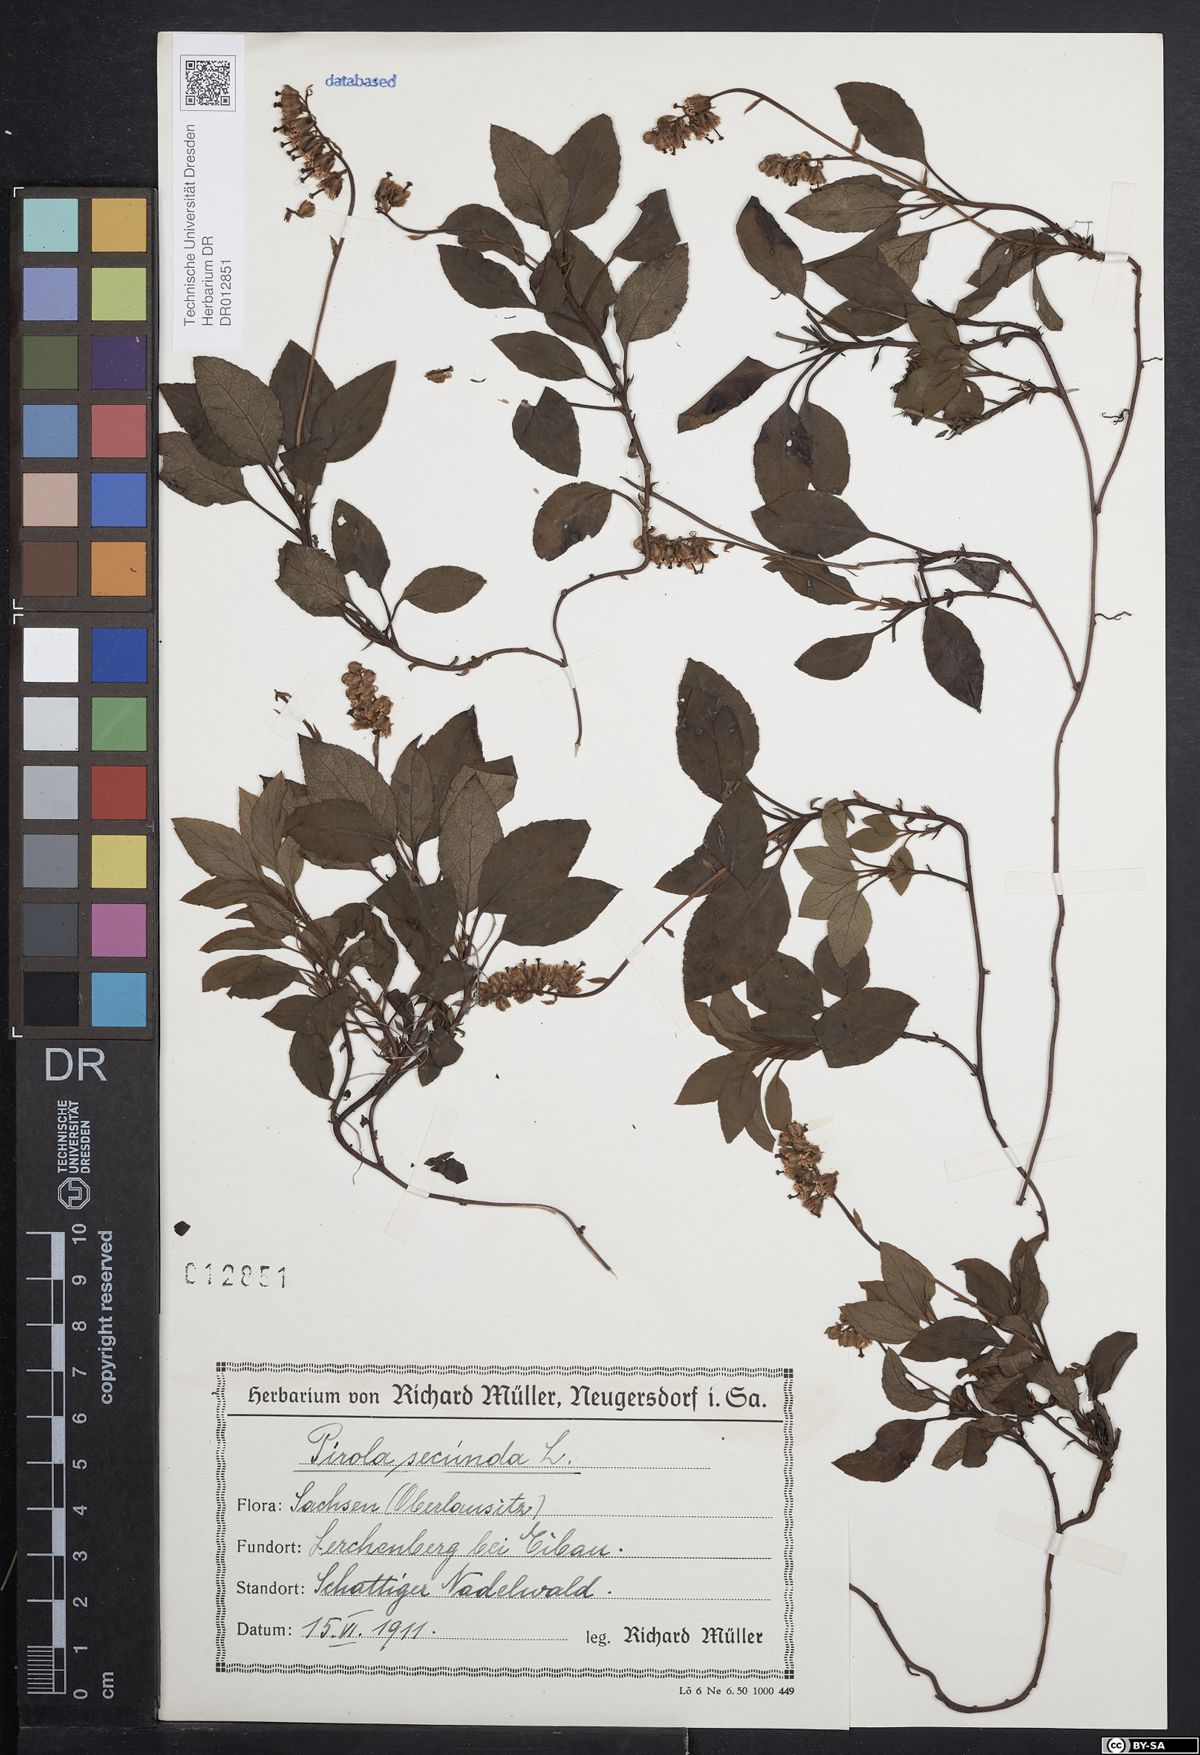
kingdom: Plantae
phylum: Tracheophyta
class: Magnoliopsida
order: Ericales
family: Ericaceae
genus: Orthilia
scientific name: Orthilia secunda
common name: One-sided orthilia
